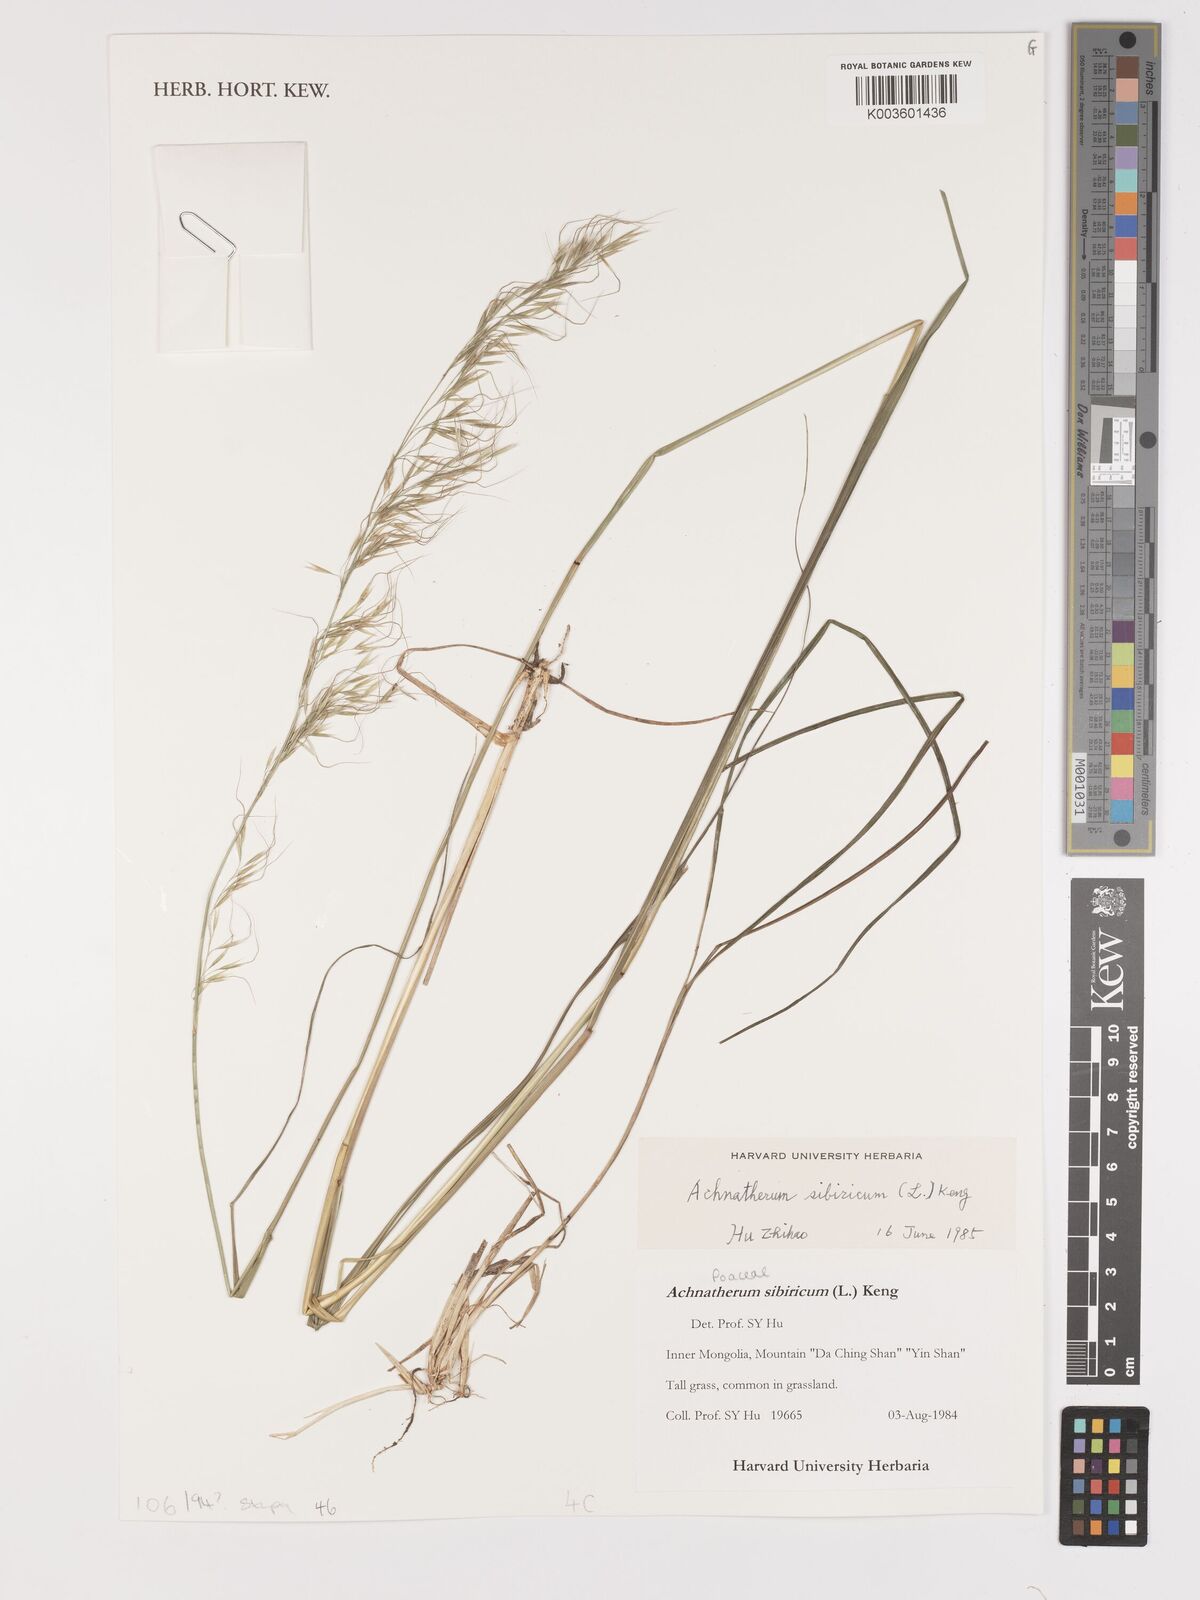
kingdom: Plantae
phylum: Tracheophyta
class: Liliopsida
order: Poales
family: Poaceae
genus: Achnatherum
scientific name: Achnatherum sibiricum
